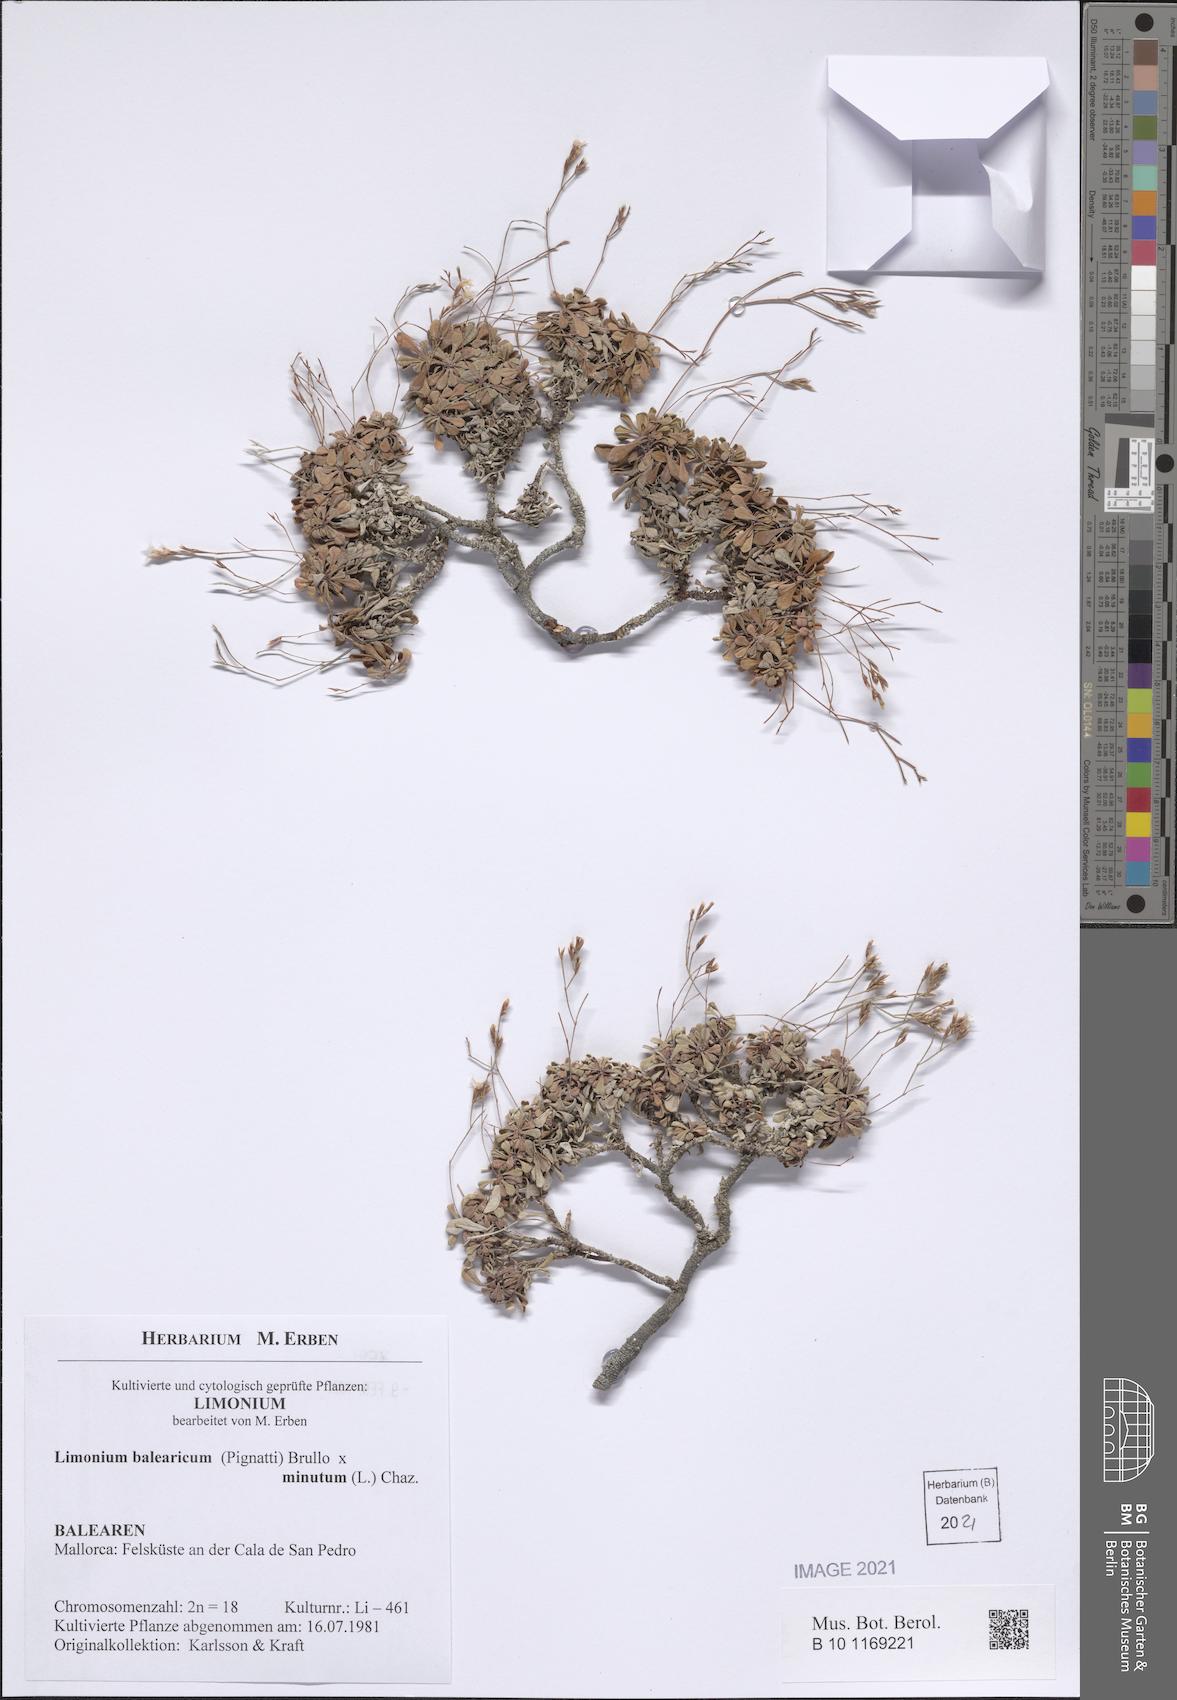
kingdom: Plantae
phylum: Tracheophyta
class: Magnoliopsida
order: Caryophyllales
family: Plumbaginaceae
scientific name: Plumbaginaceae
